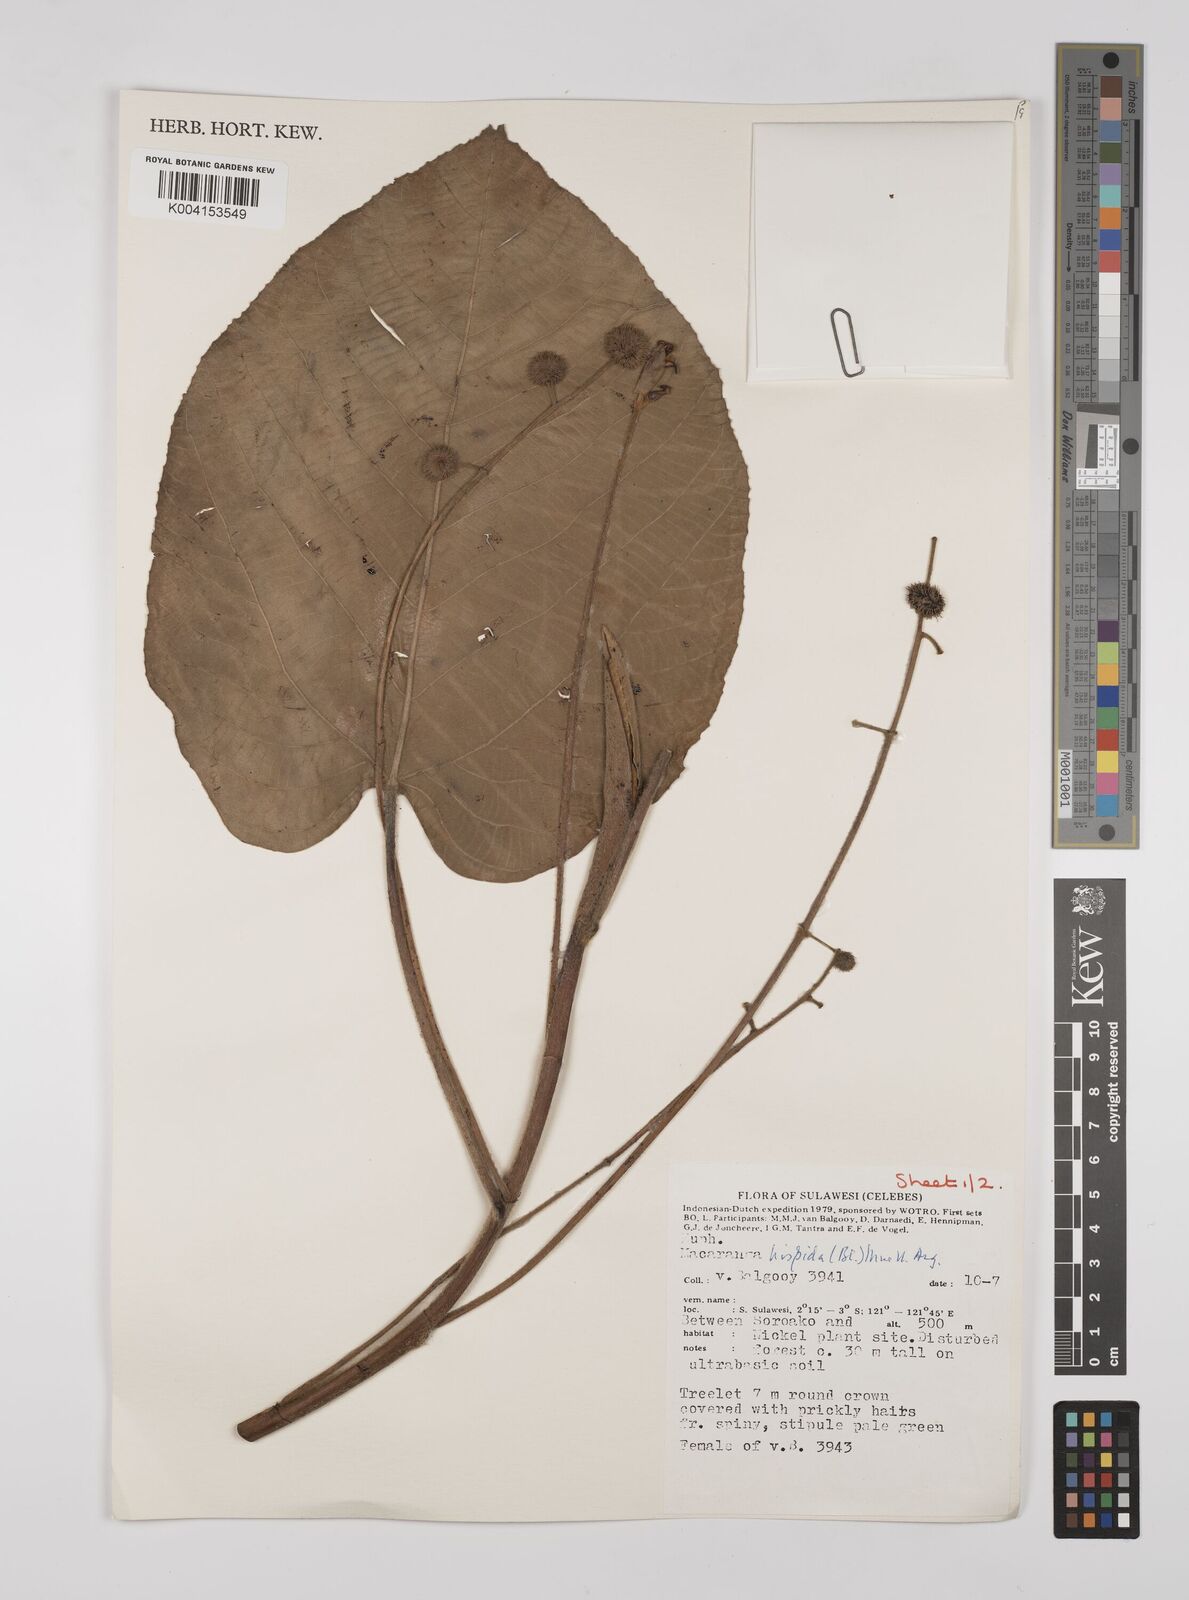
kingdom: Plantae
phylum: Tracheophyta
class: Magnoliopsida
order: Malpighiales
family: Euphorbiaceae
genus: Macaranga
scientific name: Macaranga hispida
